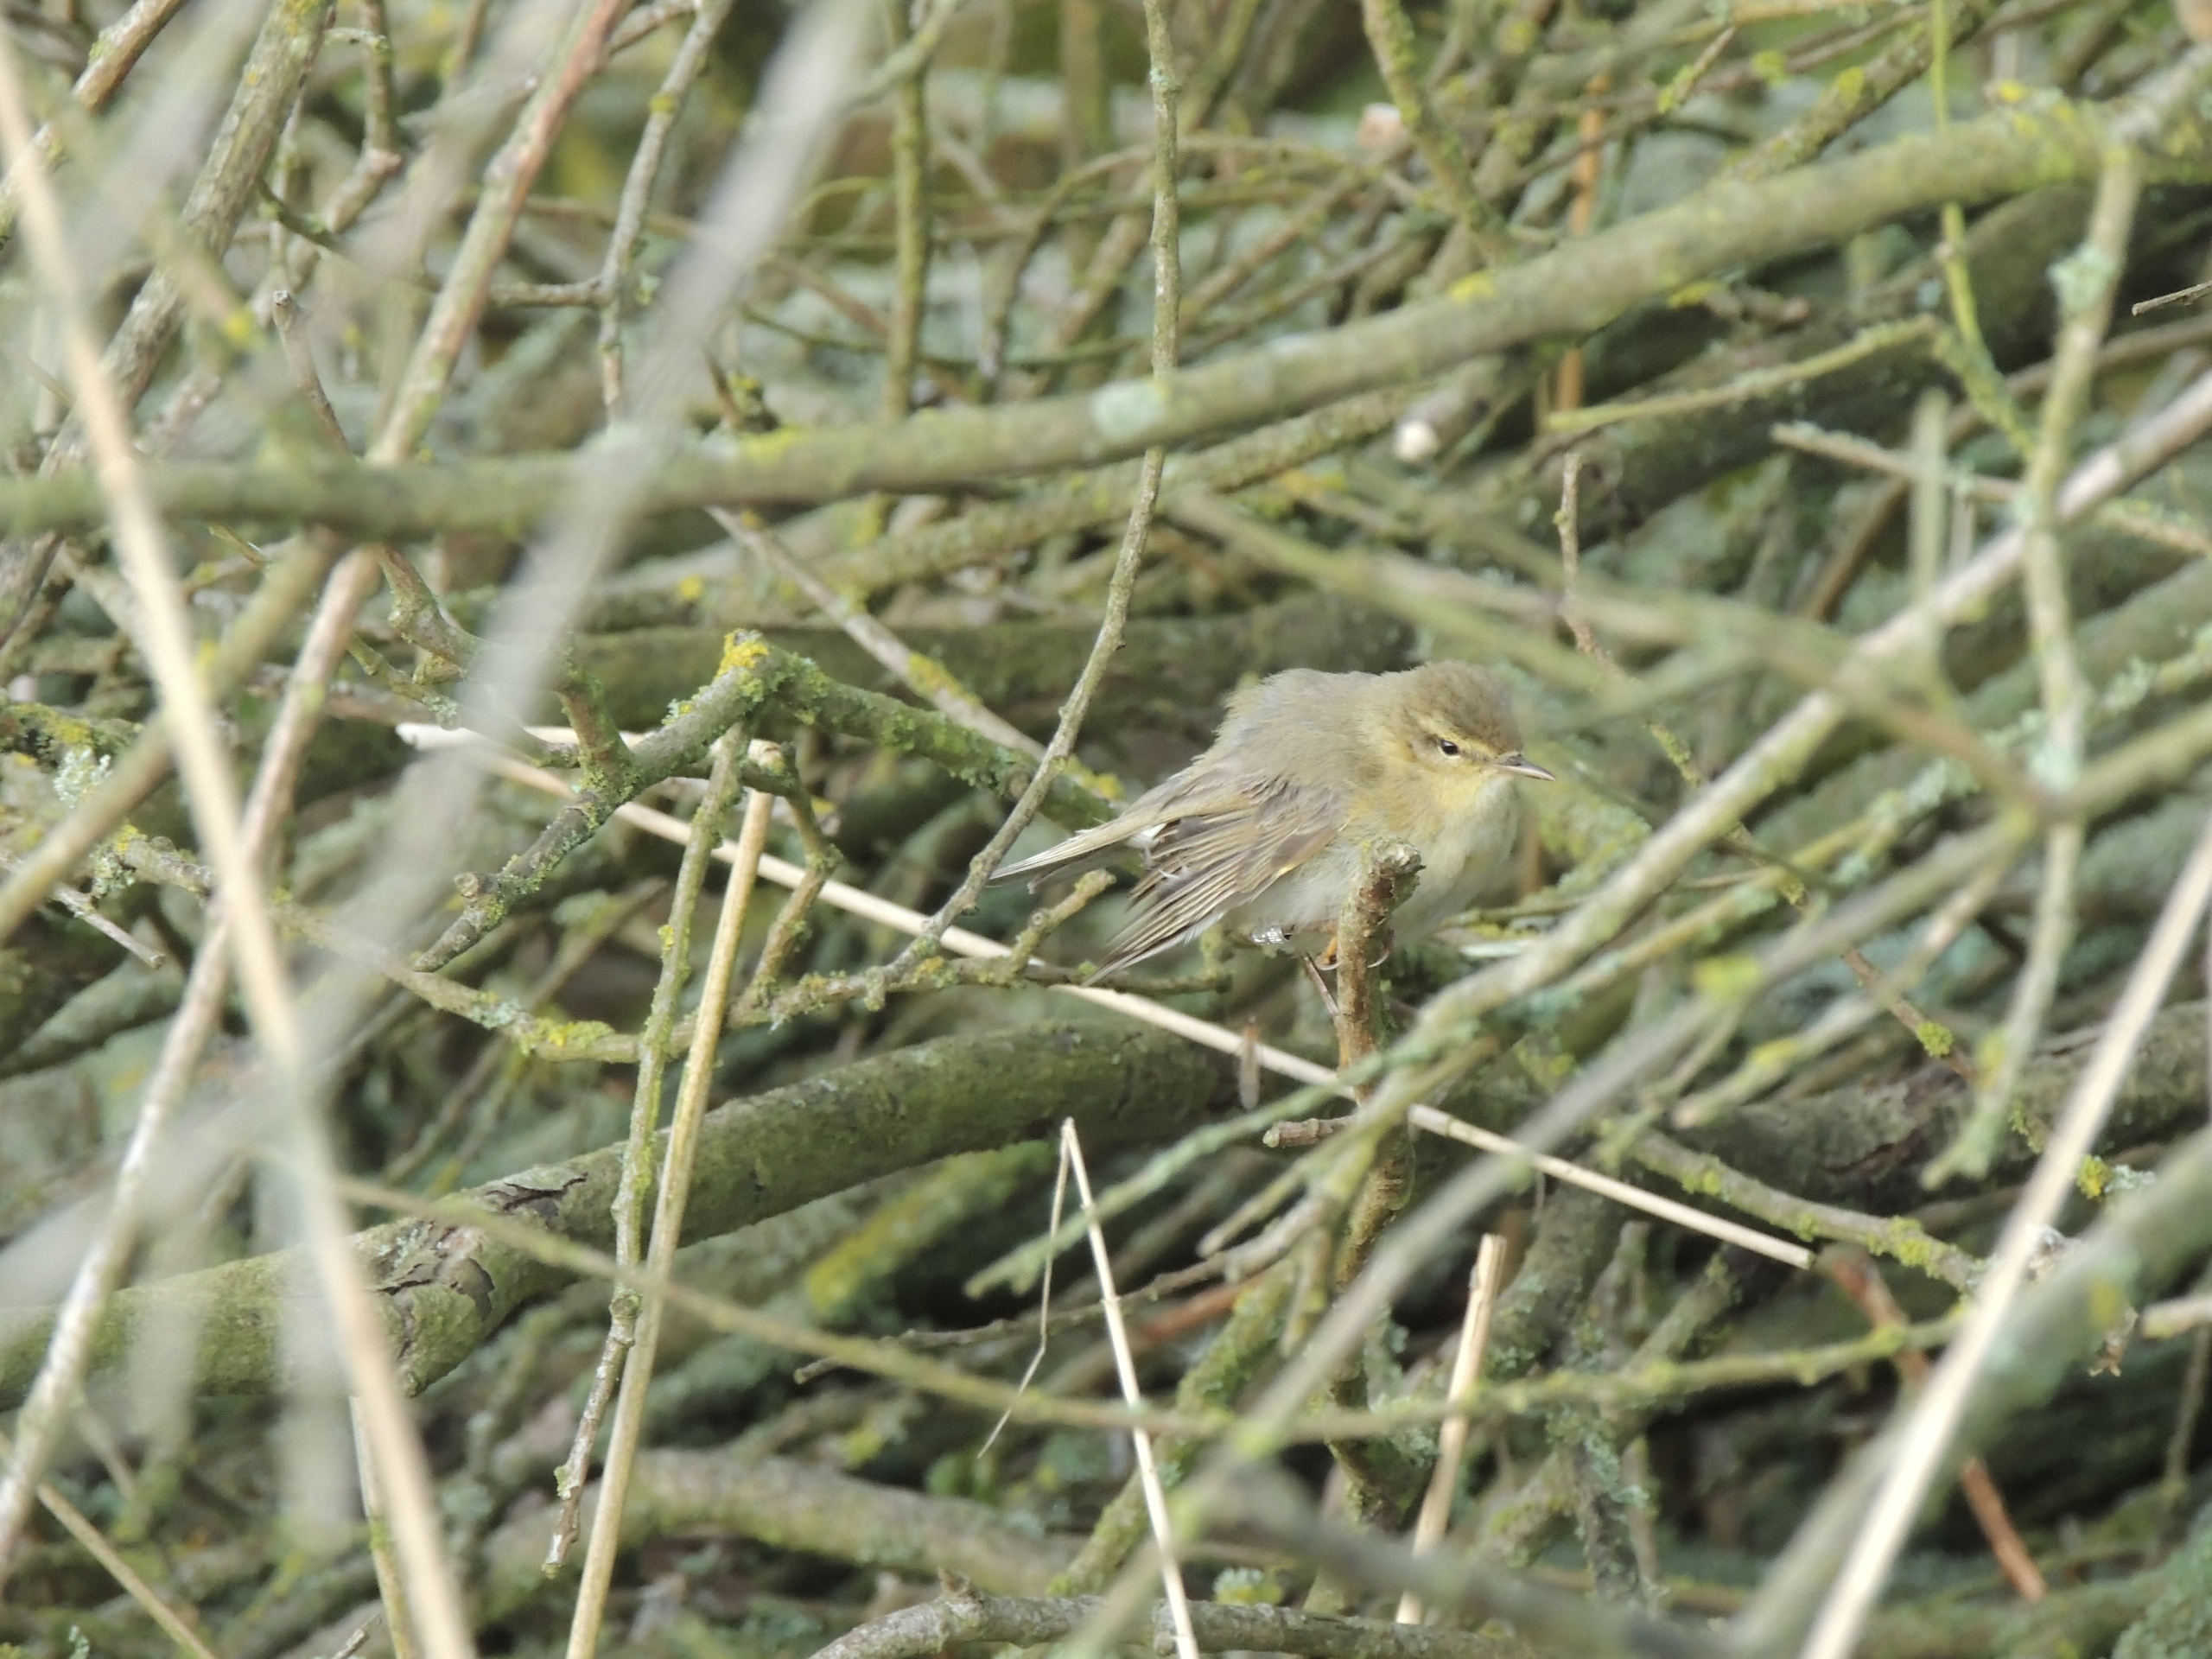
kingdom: Animalia
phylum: Chordata
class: Aves
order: Passeriformes
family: Phylloscopidae
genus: Phylloscopus
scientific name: Phylloscopus trochilus
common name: Løvsanger
